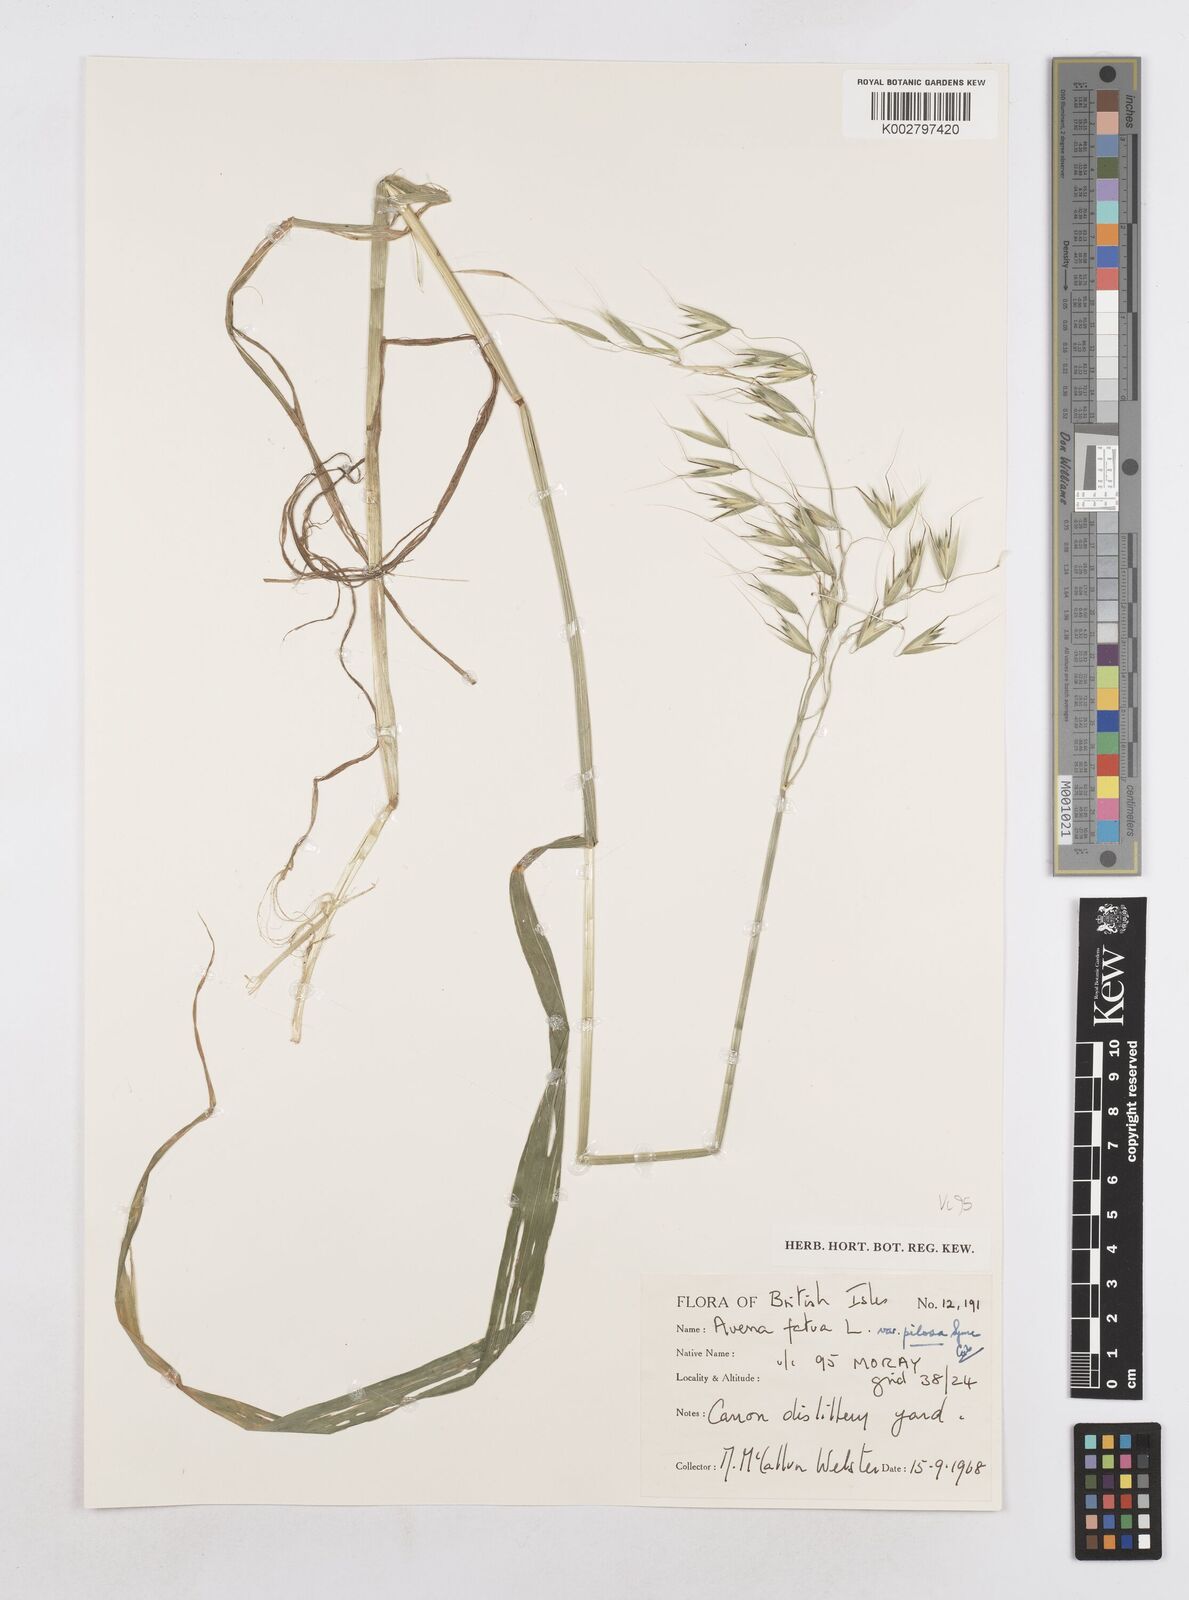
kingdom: Plantae
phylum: Tracheophyta
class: Liliopsida
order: Poales
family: Poaceae
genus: Avena
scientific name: Avena fatua
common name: Wild oat
